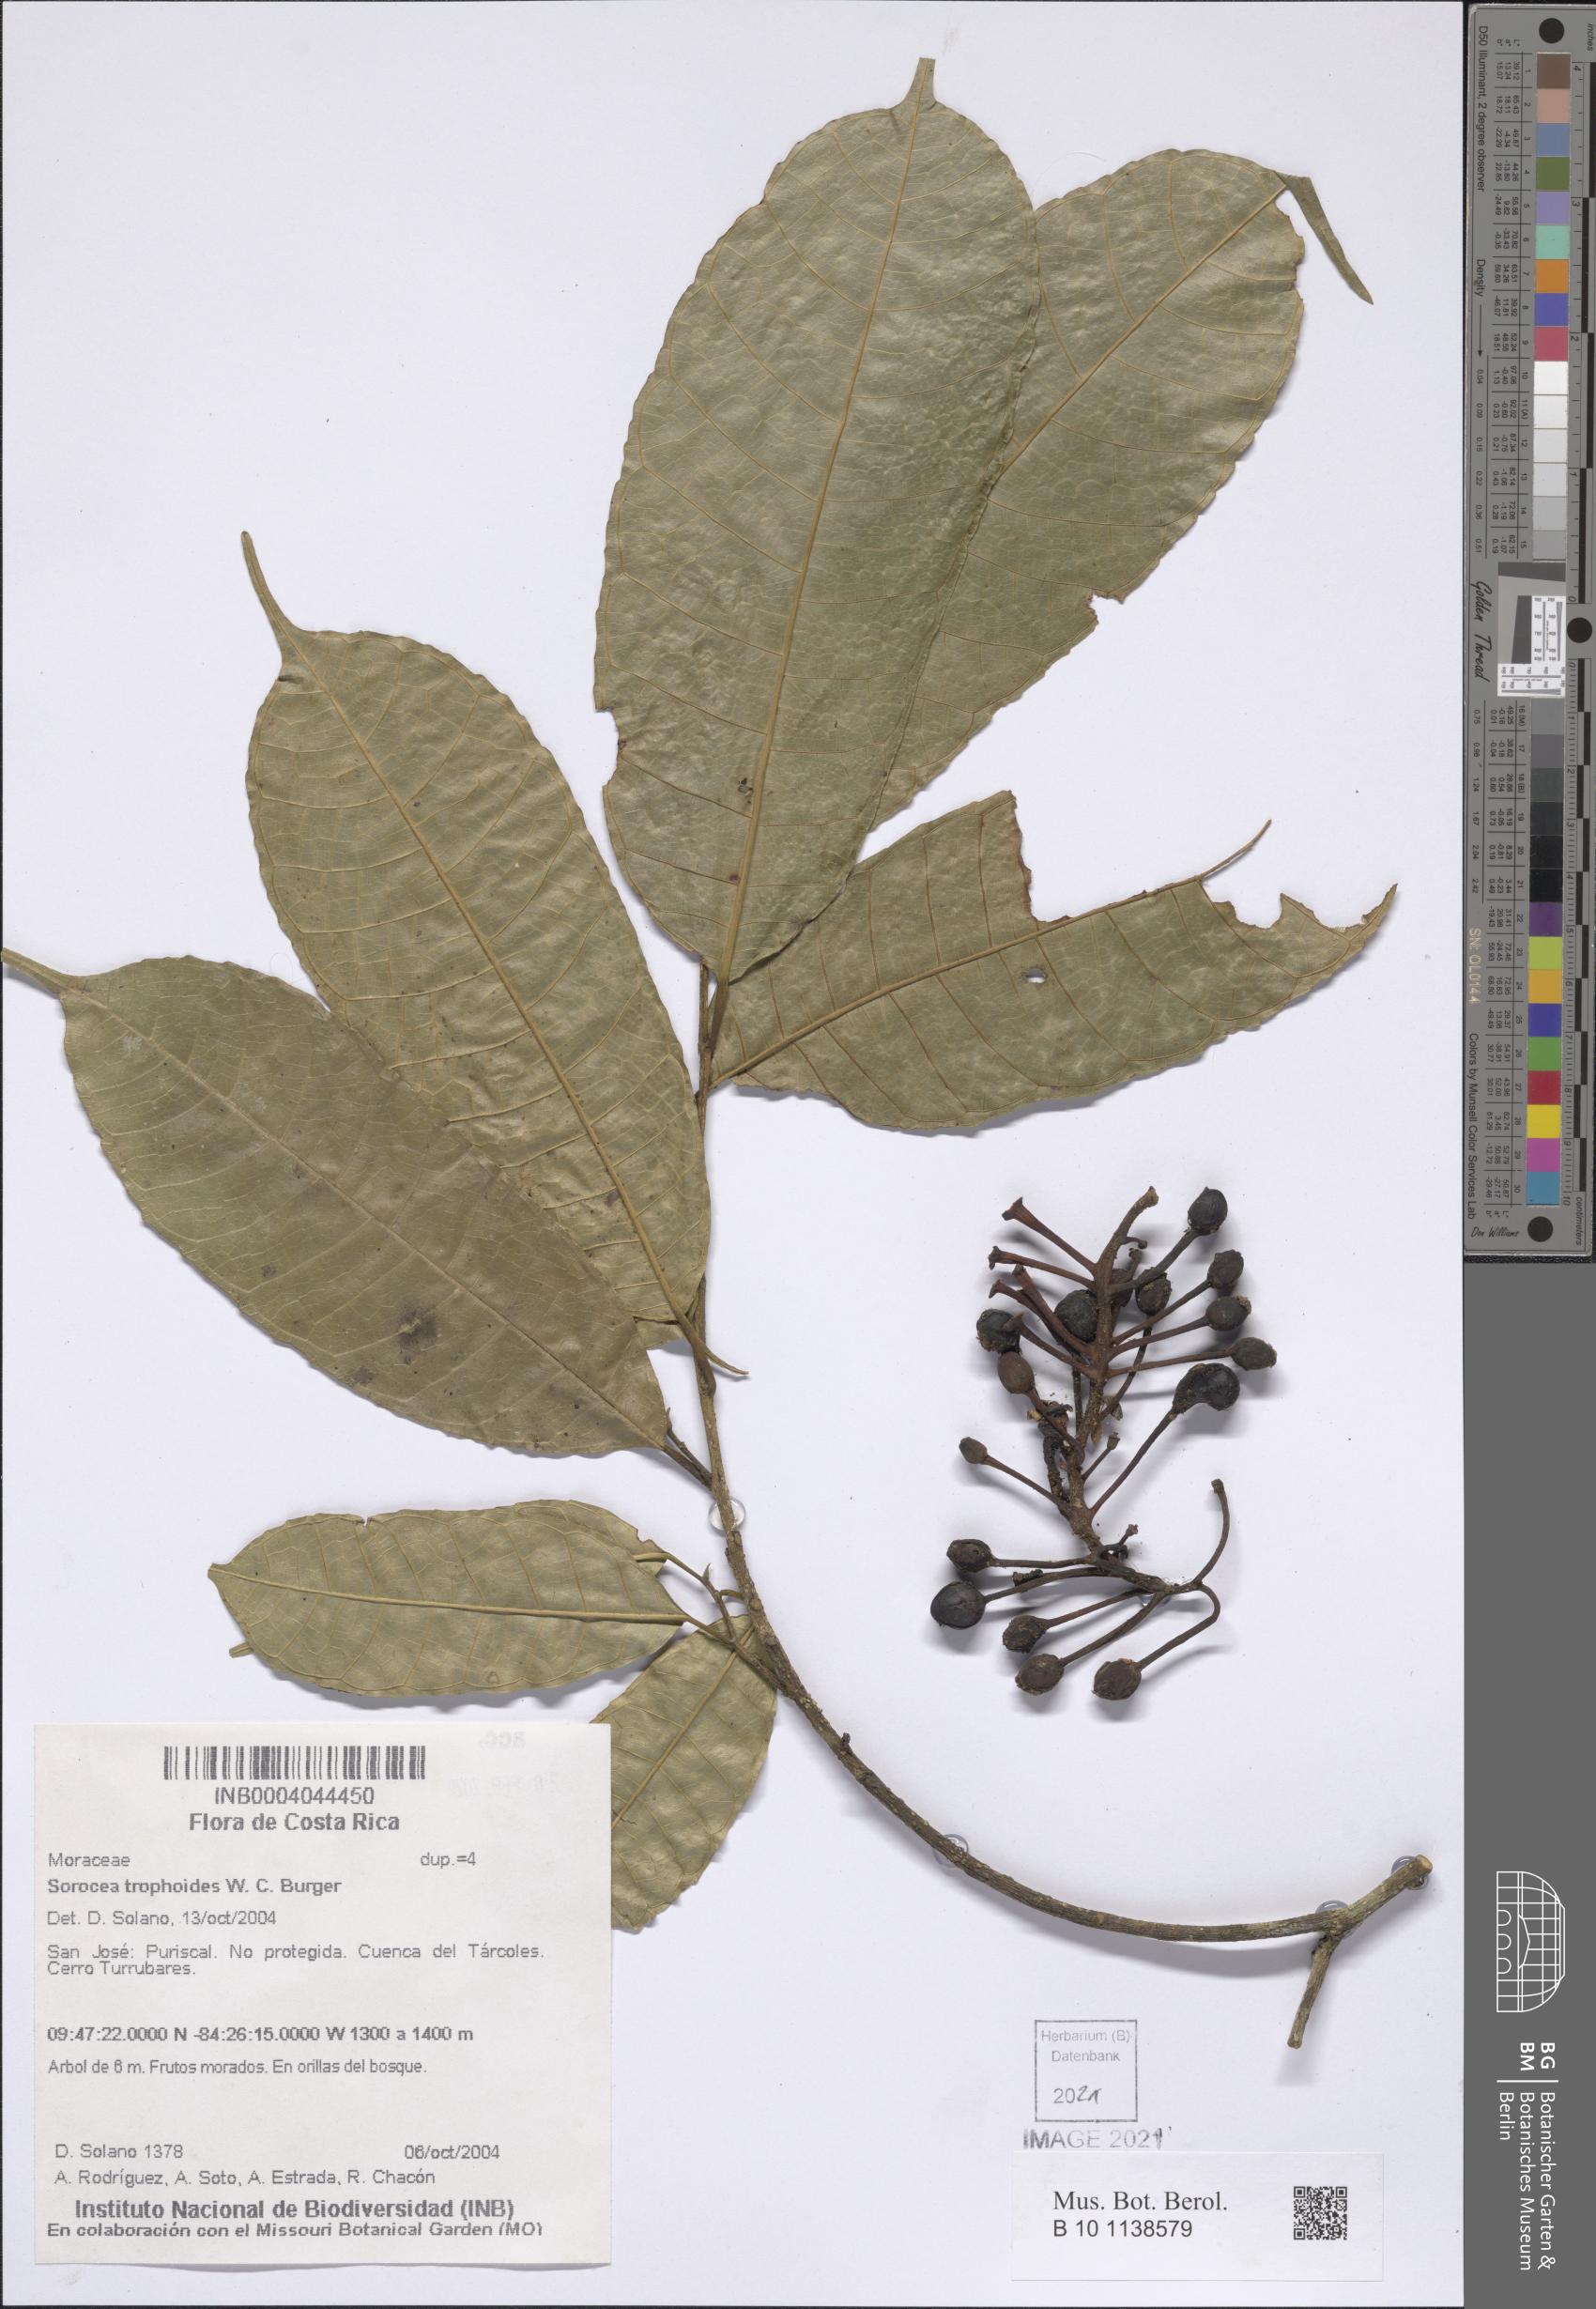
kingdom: Plantae
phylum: Tracheophyta
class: Magnoliopsida
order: Rosales
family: Moraceae
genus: Sorocea
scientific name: Sorocea trophoides
